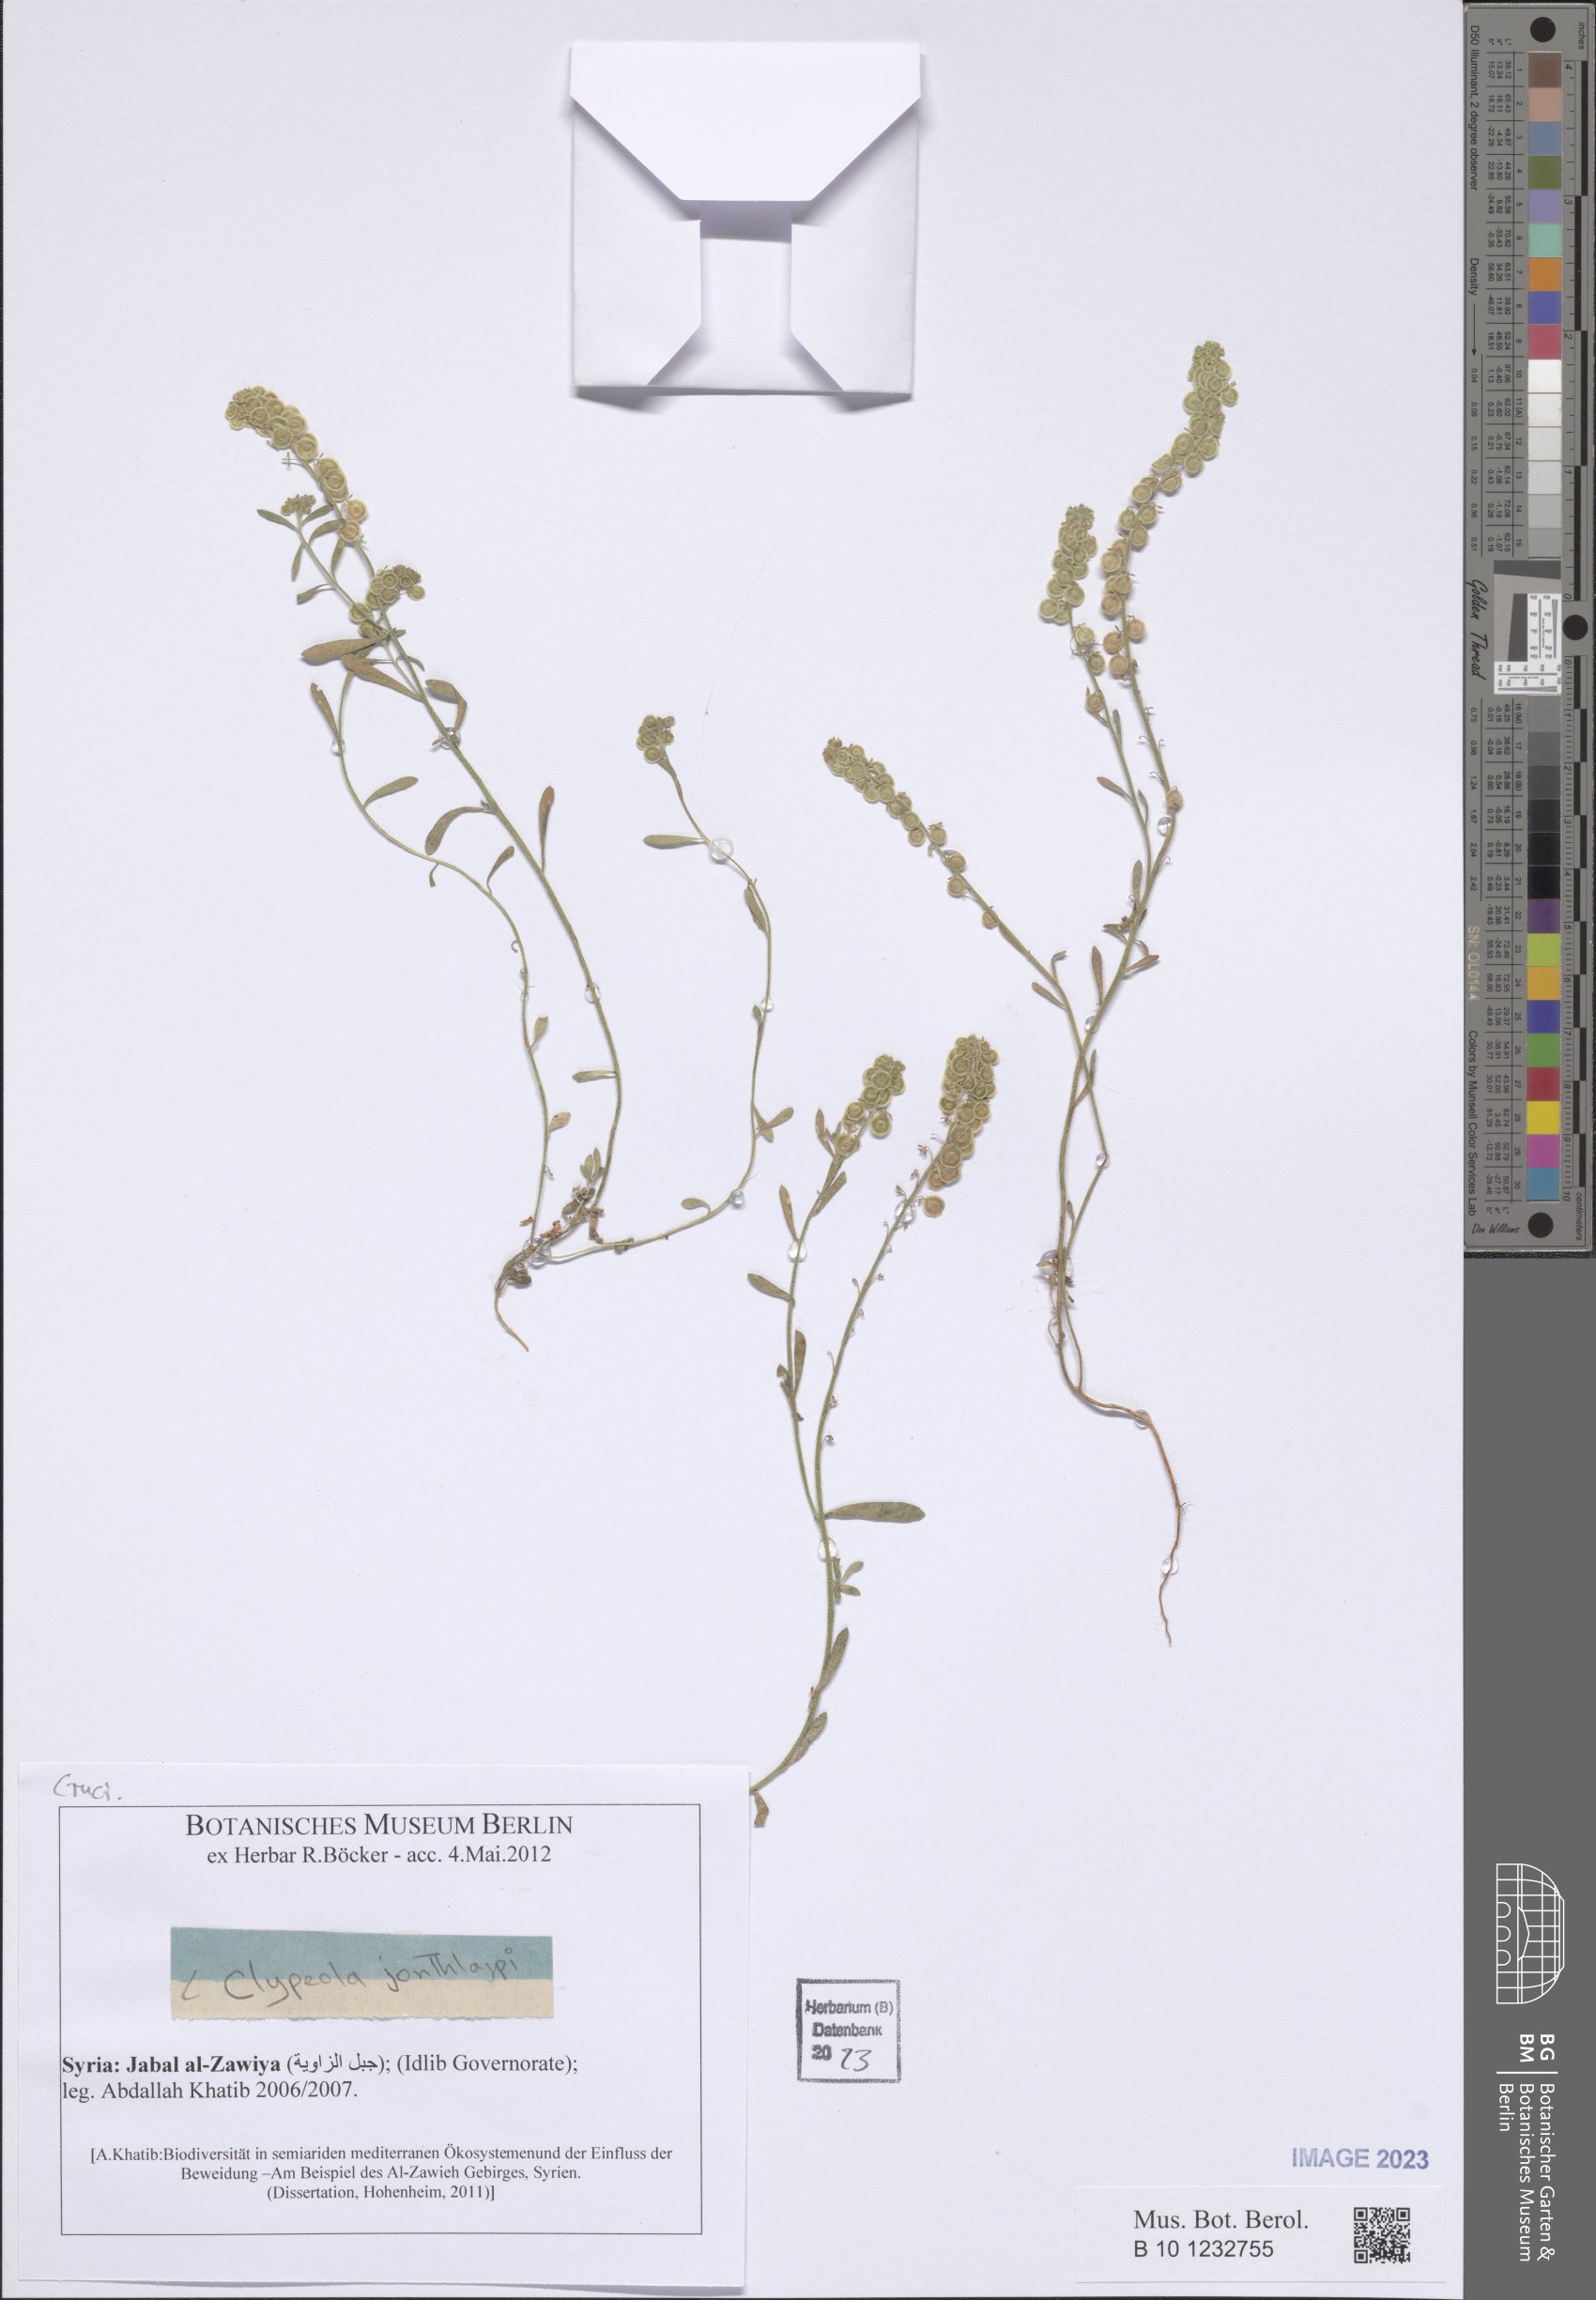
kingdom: Plantae
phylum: Tracheophyta
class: Magnoliopsida
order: Brassicales
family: Brassicaceae
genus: Clypeola
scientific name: Clypeola jonthlaspi
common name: Disk cress
